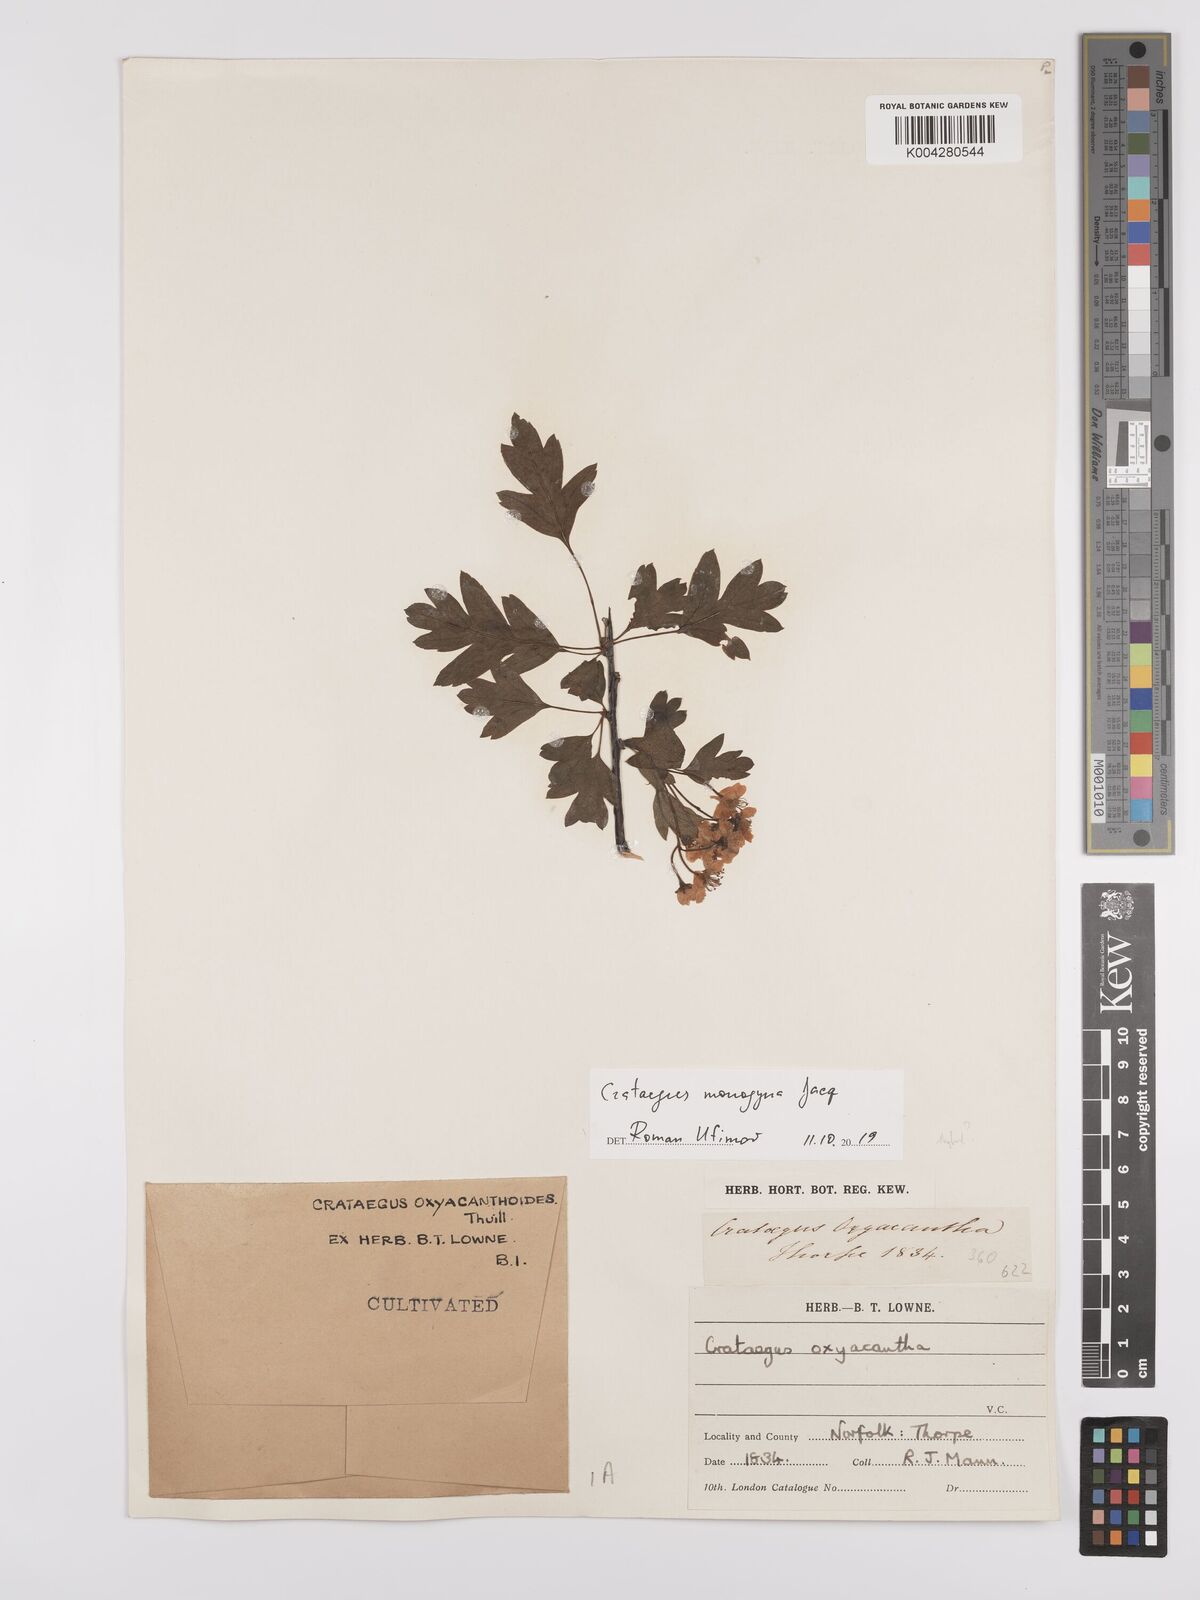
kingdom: Plantae
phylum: Tracheophyta
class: Magnoliopsida
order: Rosales
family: Rosaceae
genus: Crataegus
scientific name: Crataegus monogyna
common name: Hawthorn
